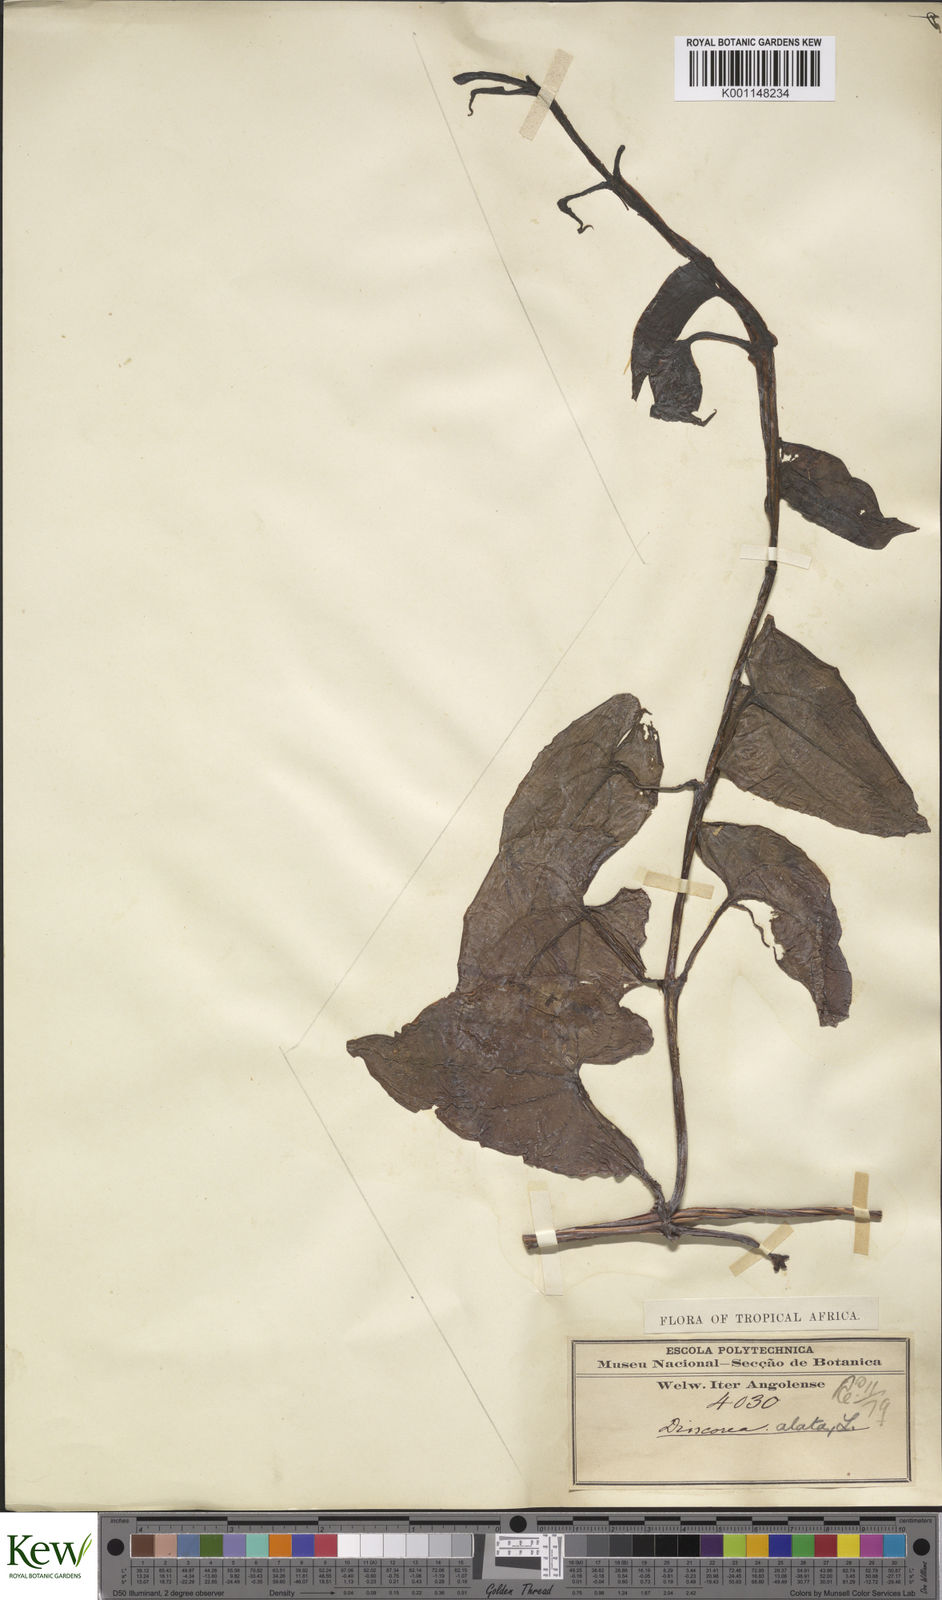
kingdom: Plantae
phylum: Tracheophyta
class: Liliopsida
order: Dioscoreales
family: Dioscoreaceae
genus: Dioscorea
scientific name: Dioscorea alata
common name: Water yam
